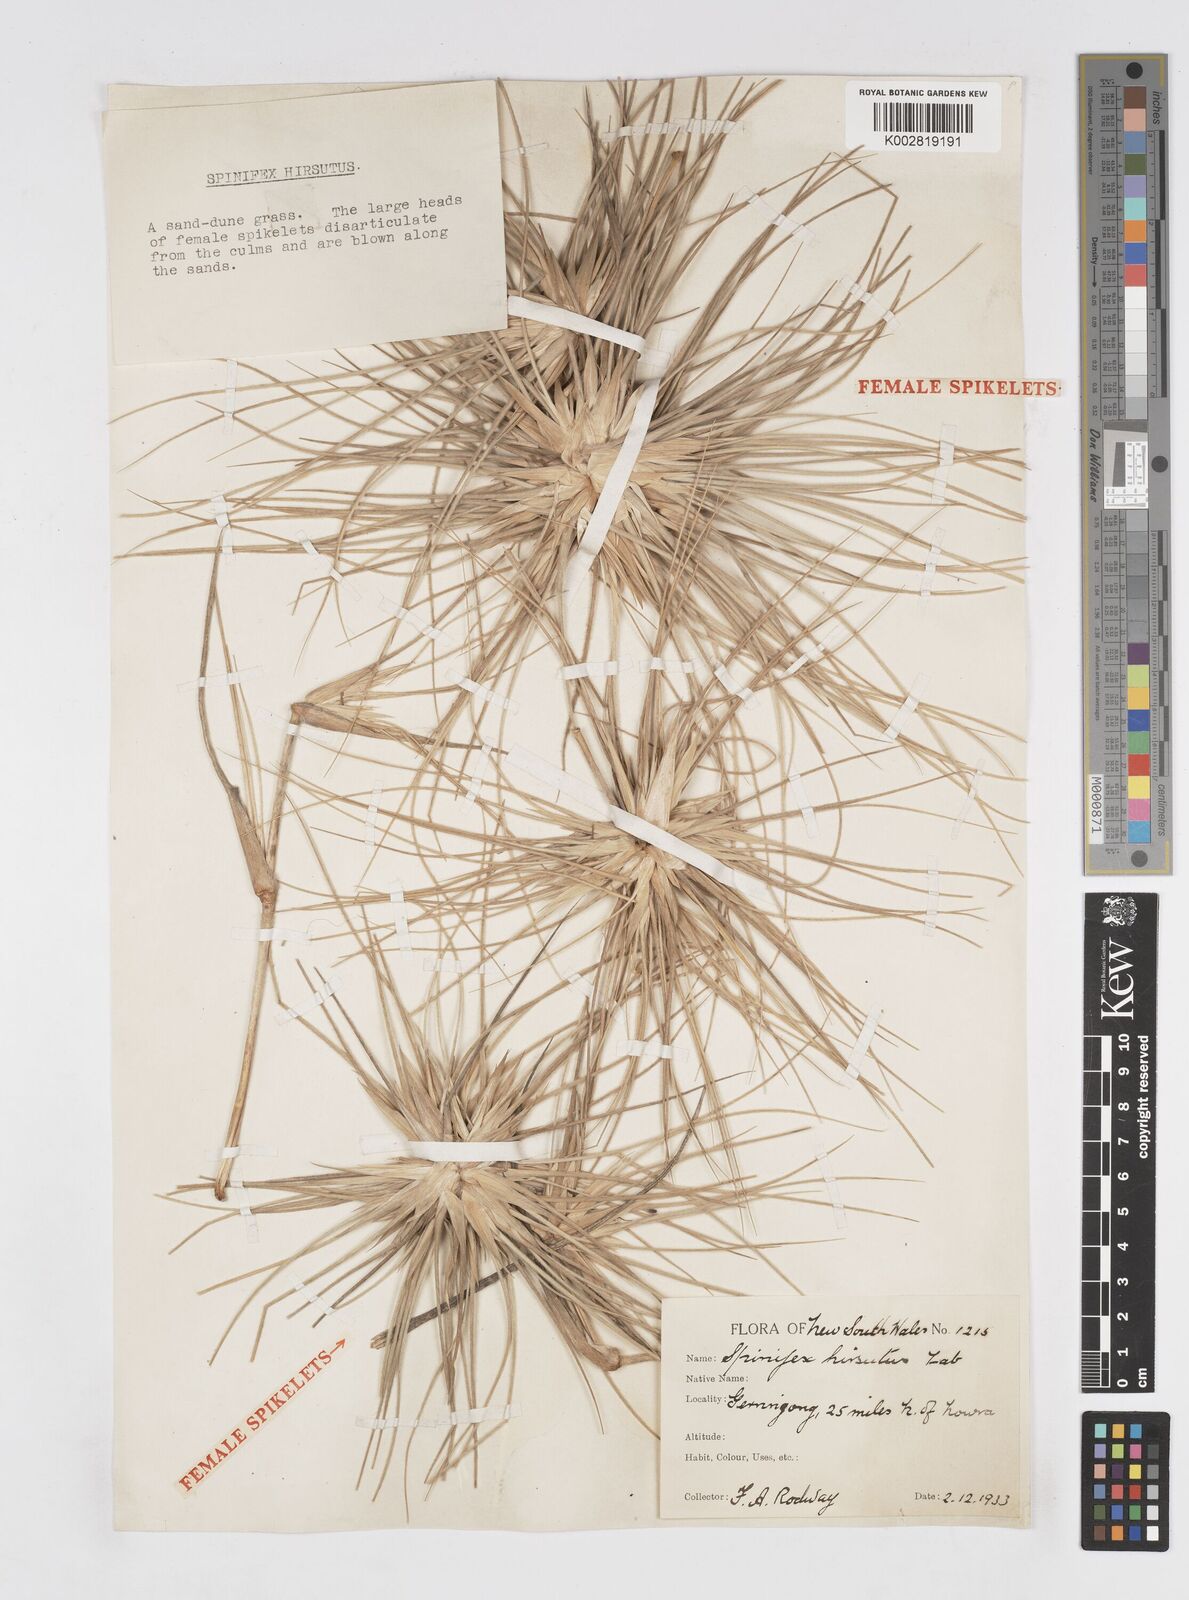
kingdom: Plantae
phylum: Tracheophyta
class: Liliopsida
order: Poales
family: Poaceae
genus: Spinifex
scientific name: Spinifex sericeus
